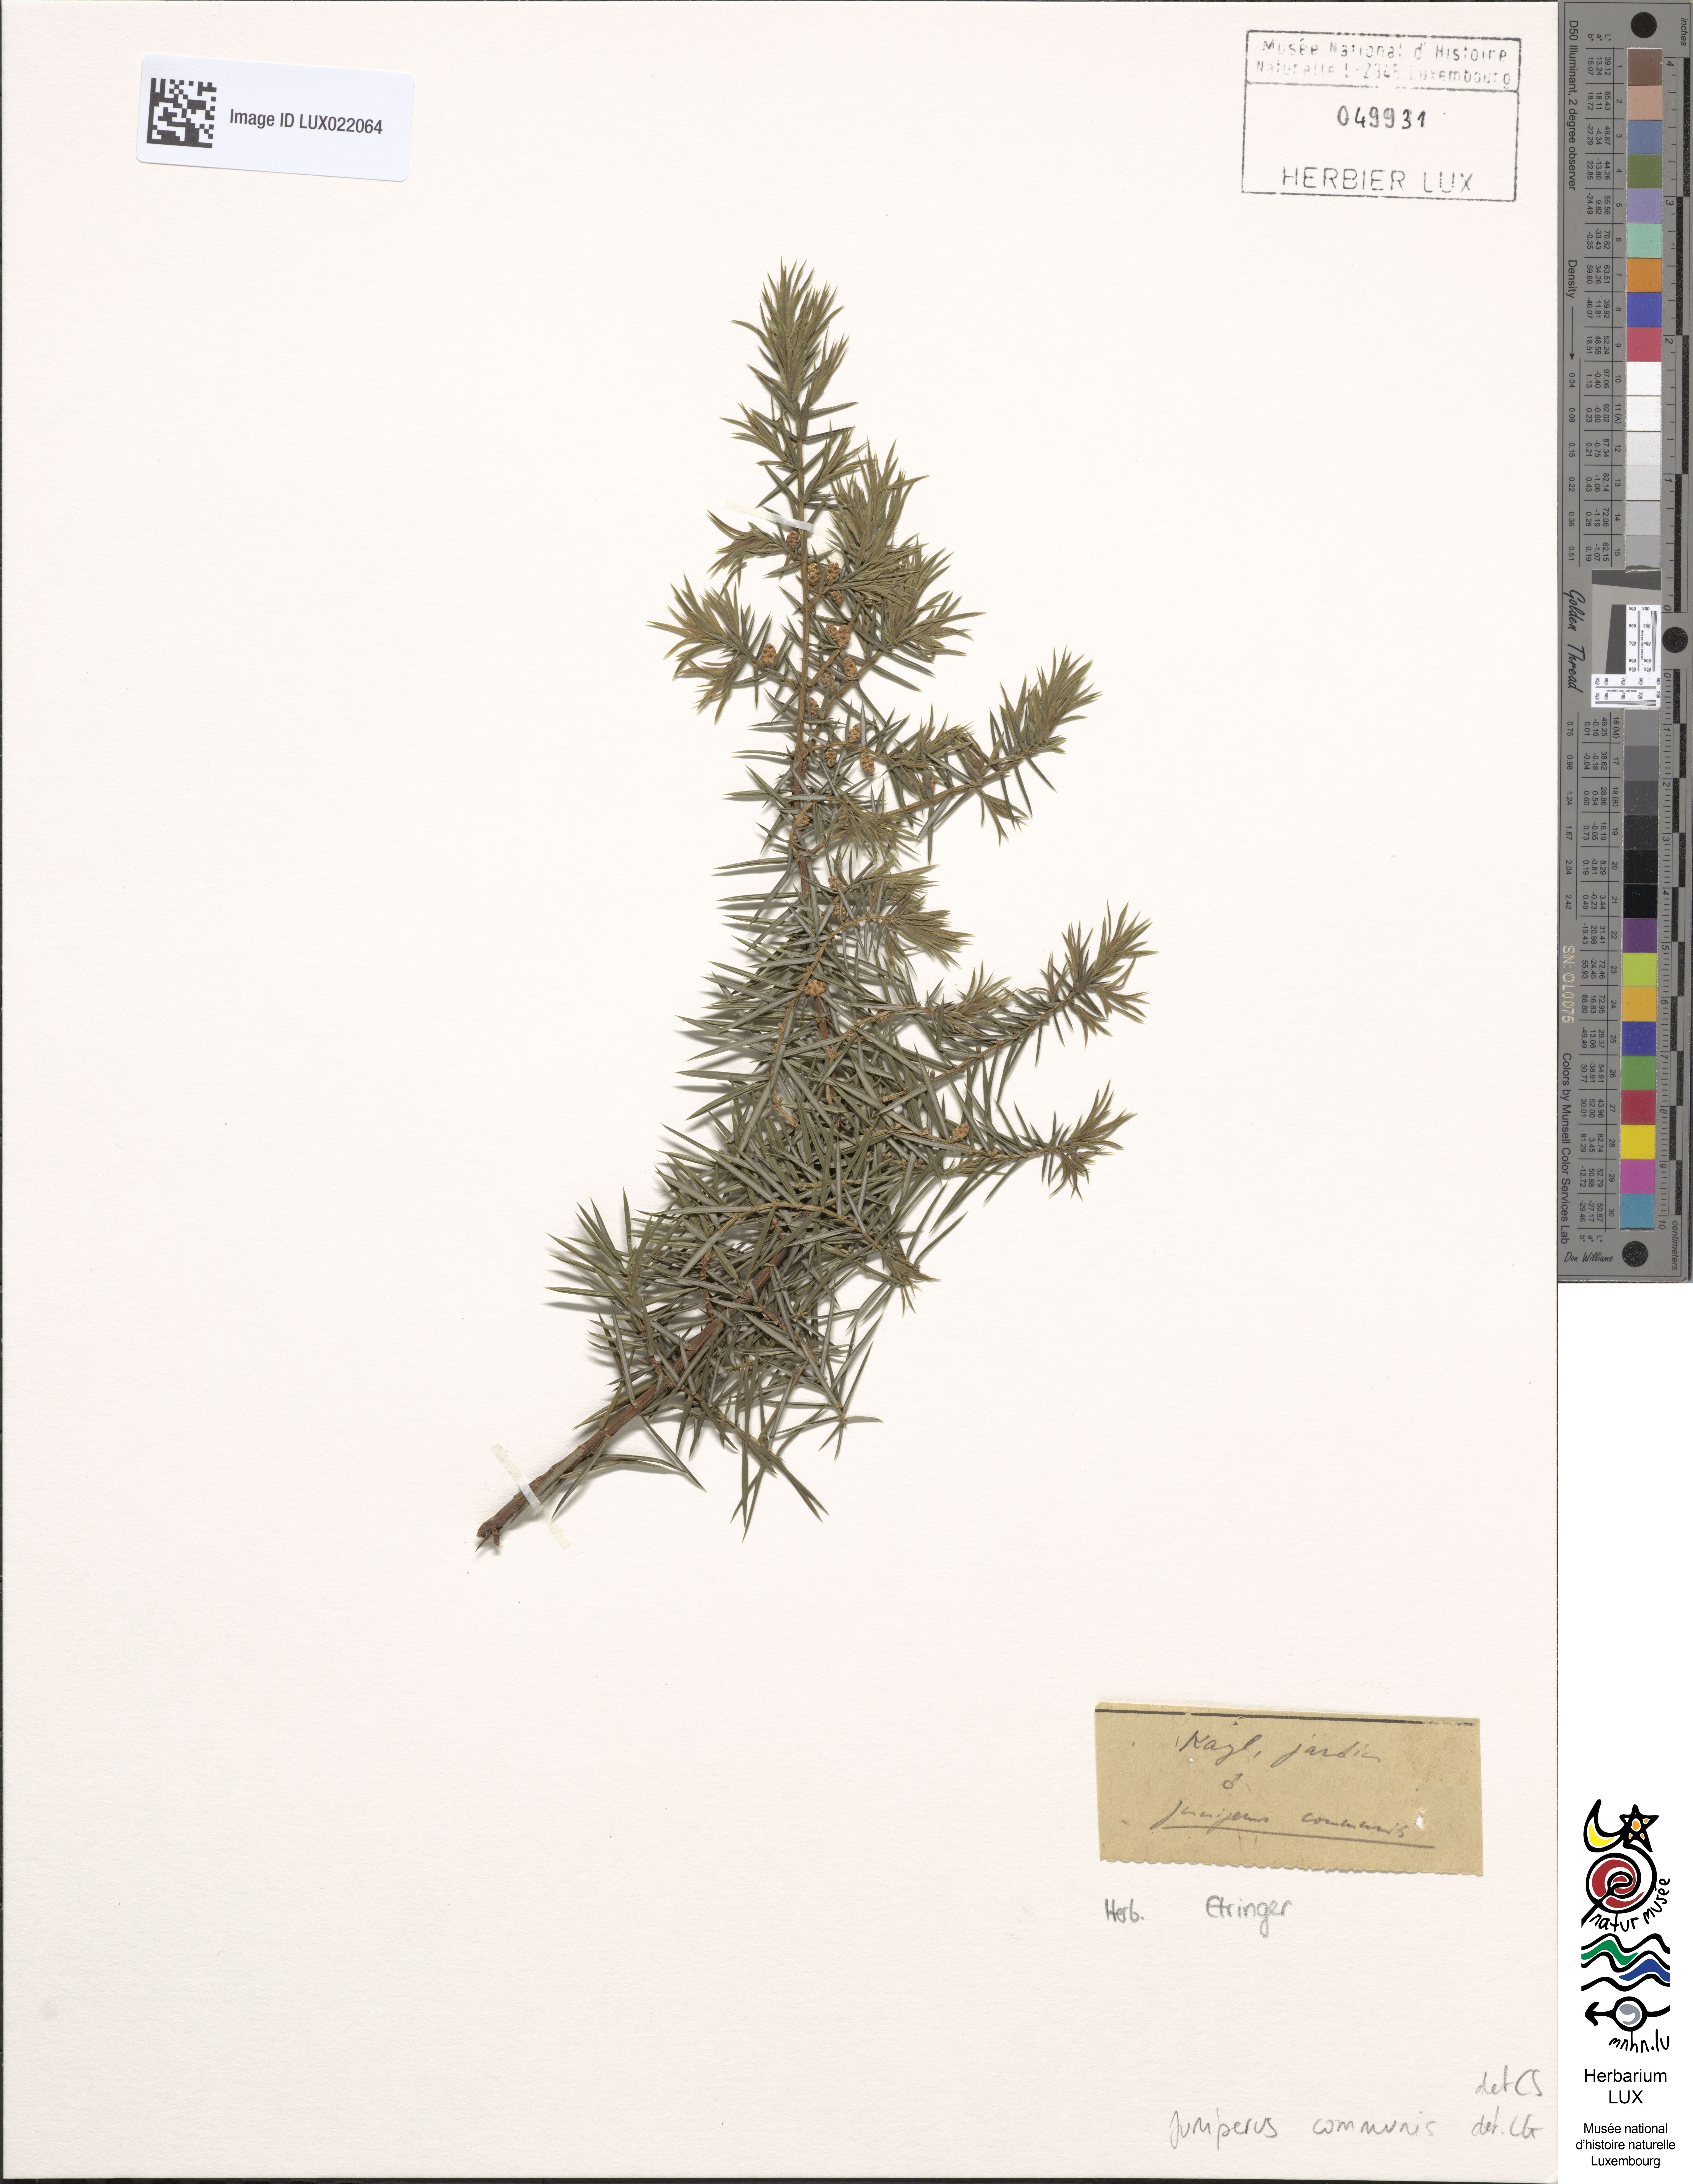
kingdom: Plantae
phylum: Tracheophyta
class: Pinopsida
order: Pinales
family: Cupressaceae
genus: Juniperus
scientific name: Juniperus communis
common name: Common juniper
